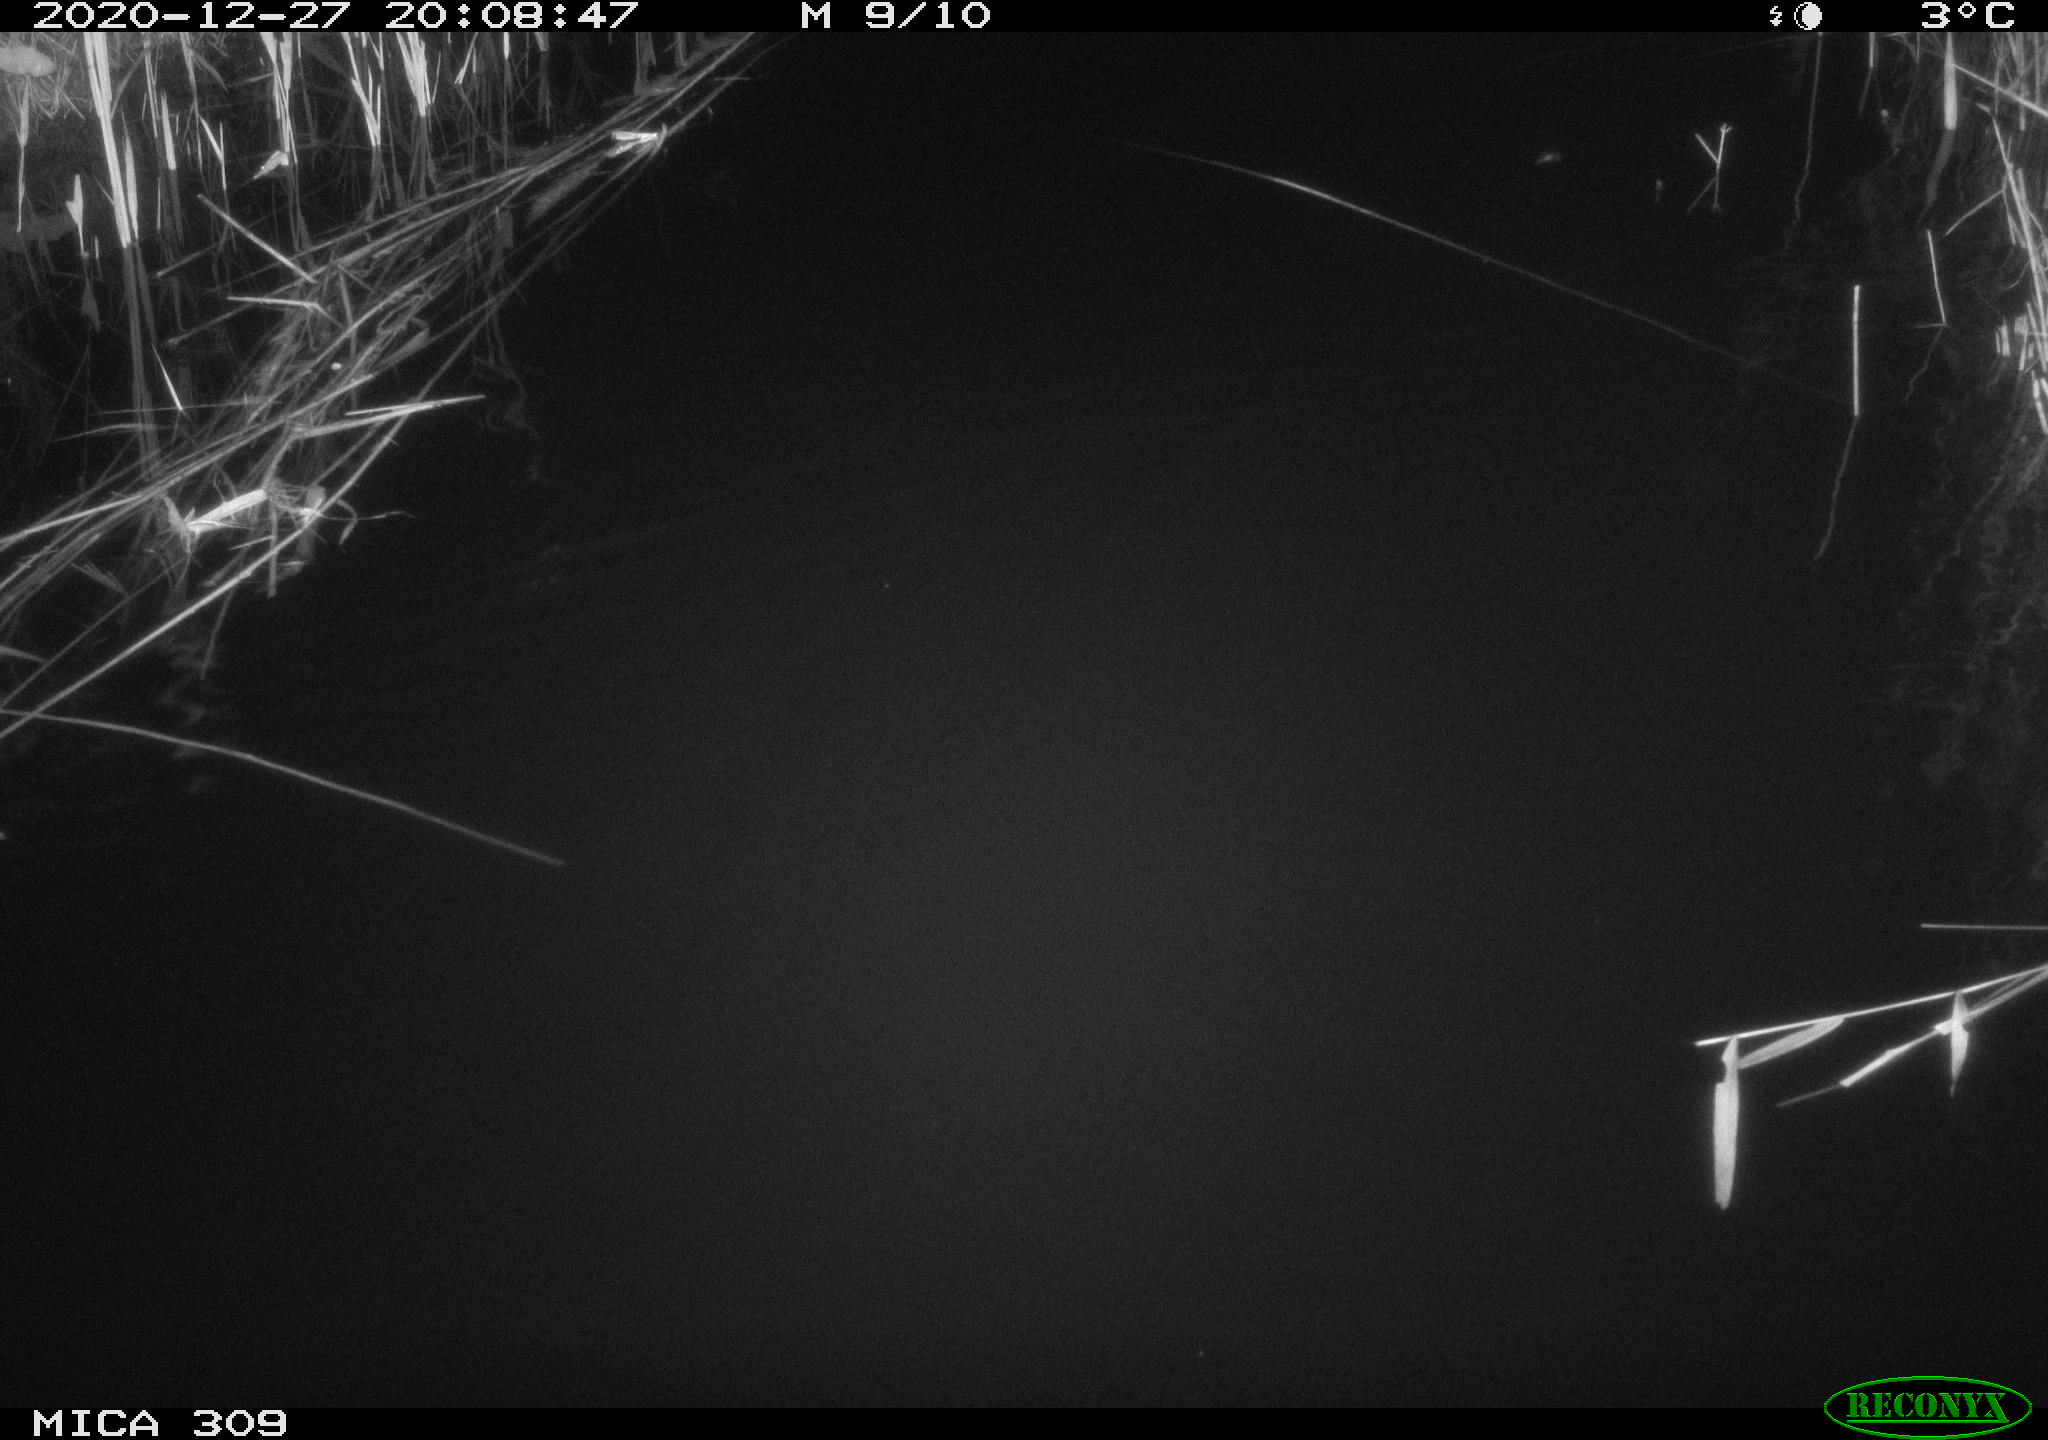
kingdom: Animalia
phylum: Chordata
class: Mammalia
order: Rodentia
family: Muridae
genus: Rattus
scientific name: Rattus norvegicus
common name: Brown rat
